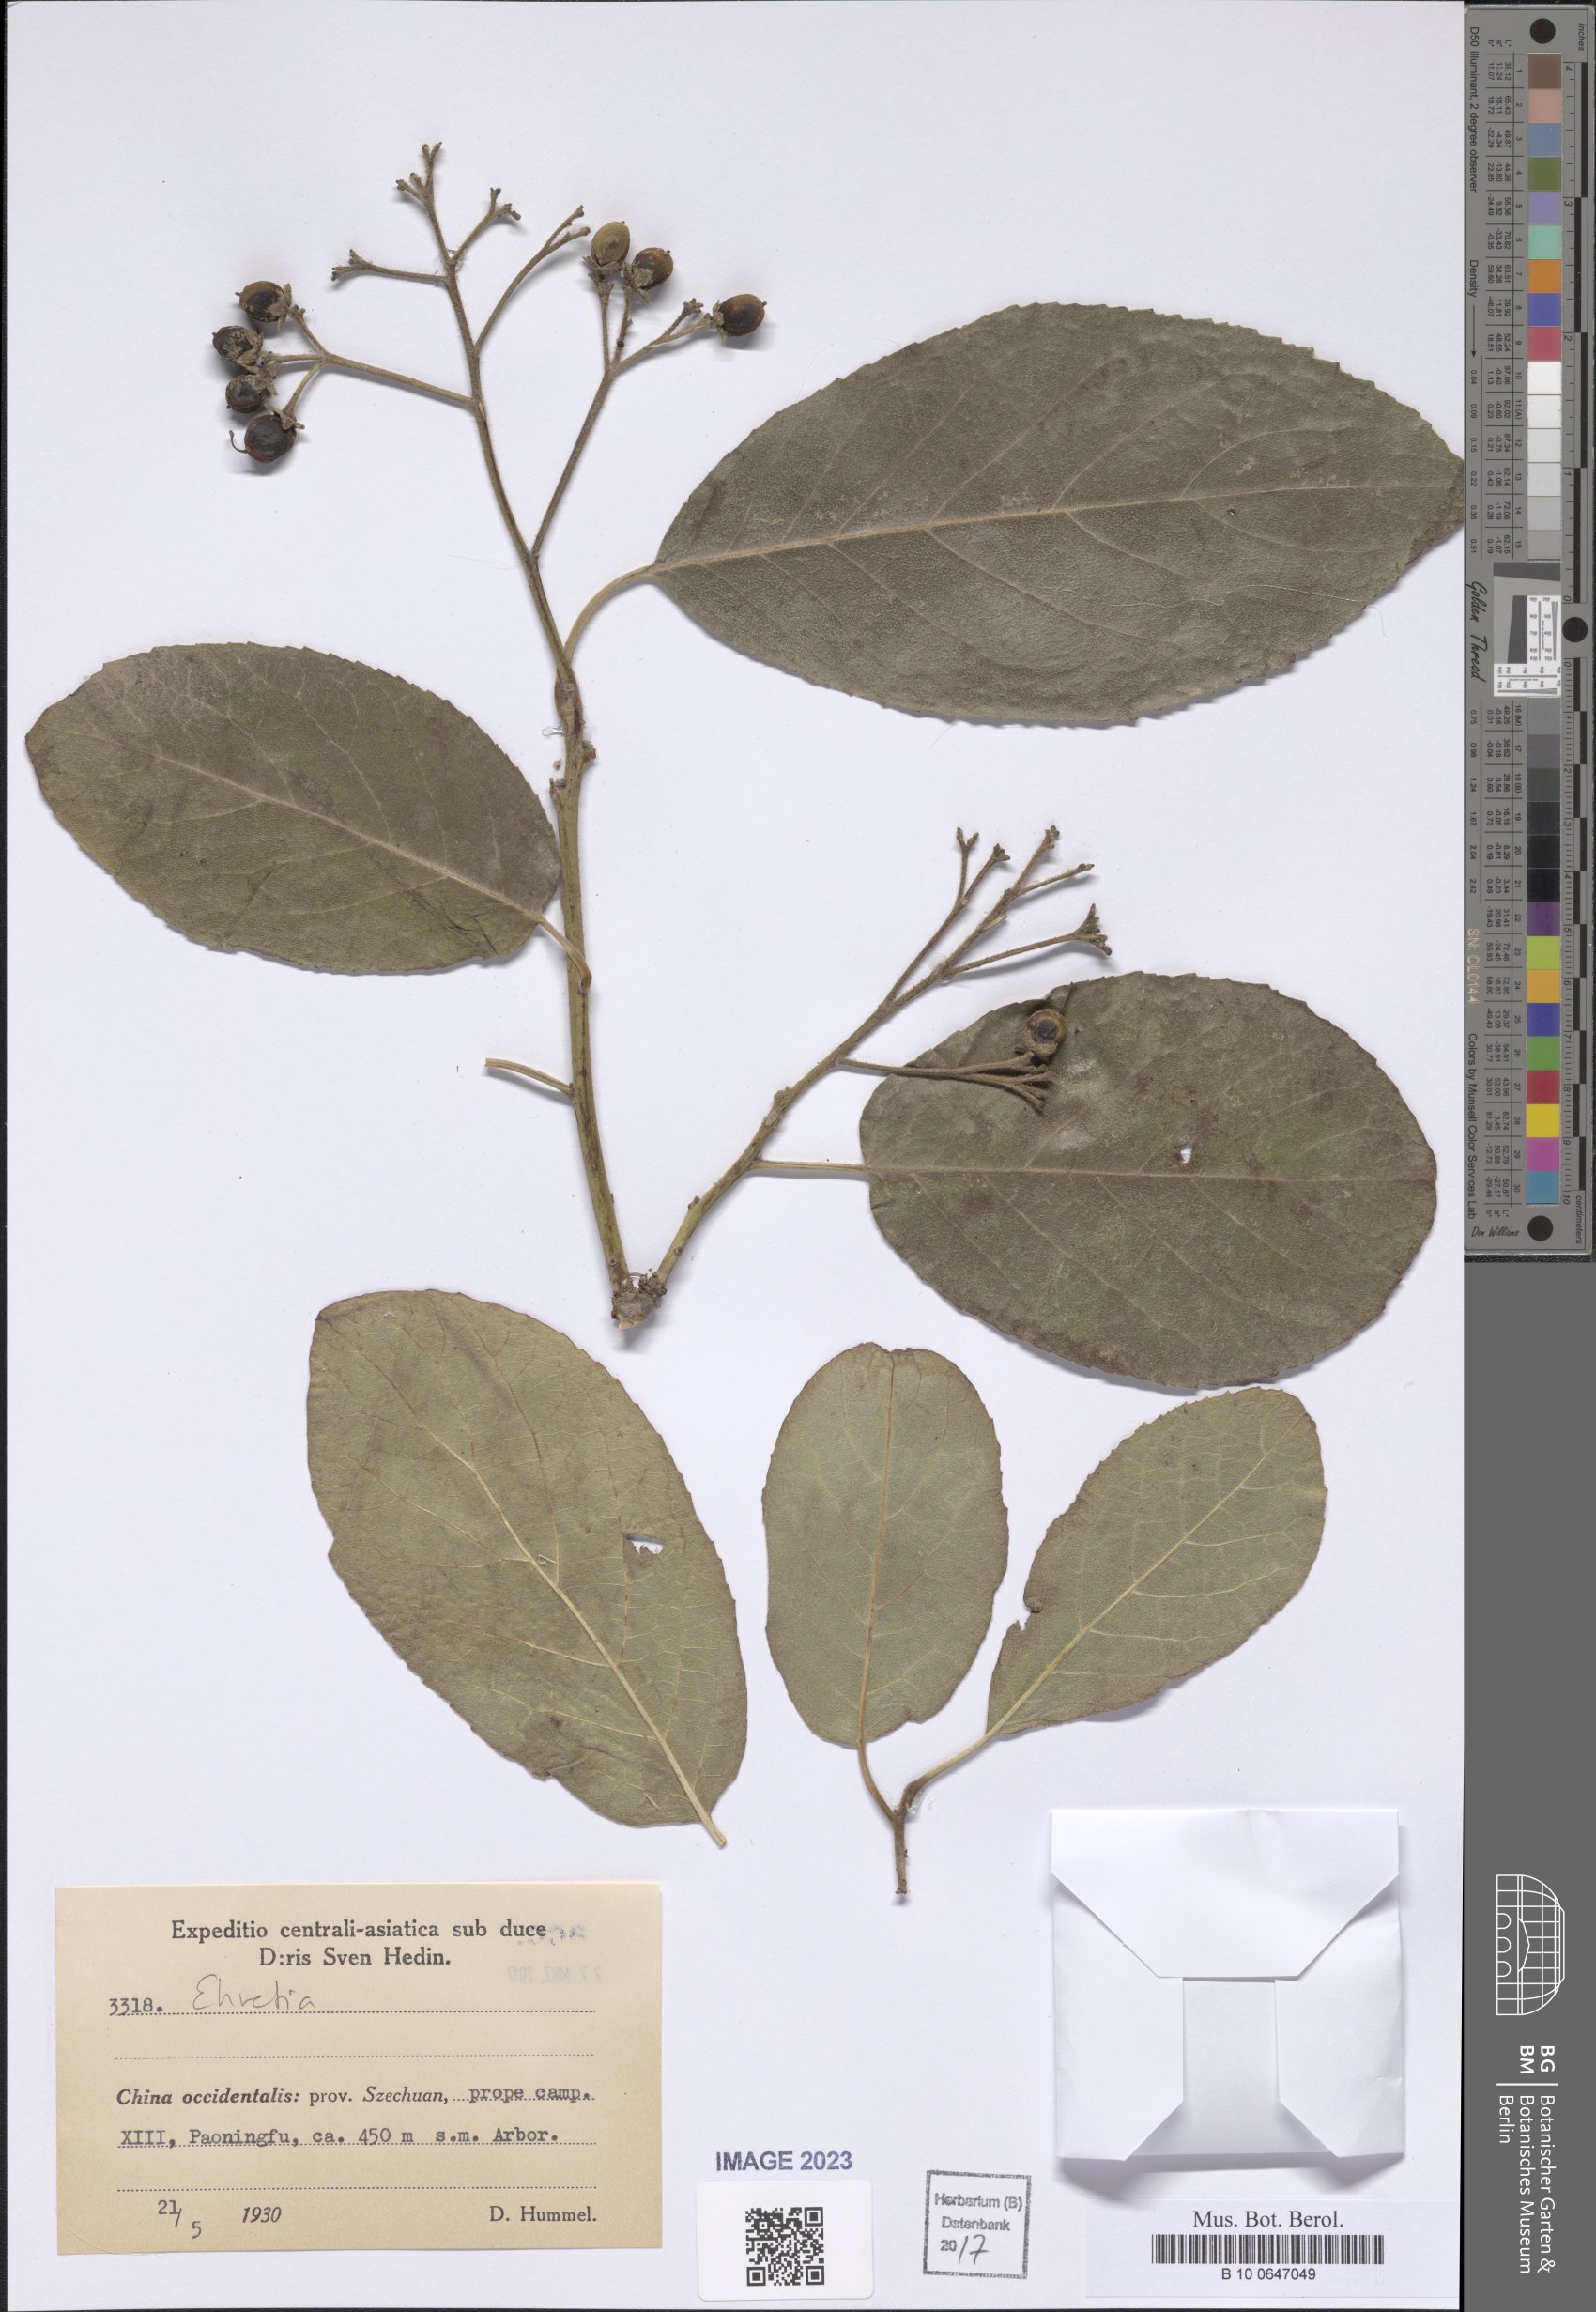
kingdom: Plantae
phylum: Tracheophyta
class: Magnoliopsida
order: Boraginales
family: Ehretiaceae
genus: Ehretia
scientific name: Ehretia
